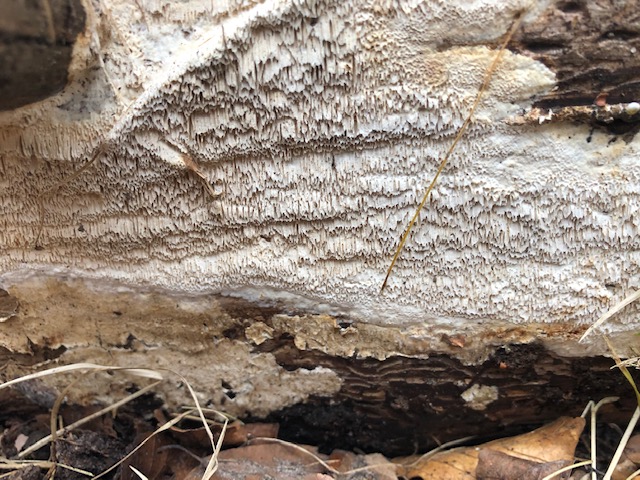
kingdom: Fungi
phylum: Basidiomycota
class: Agaricomycetes
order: Polyporales
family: Fomitopsidaceae
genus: Antrodia
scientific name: Antrodia sinuosa
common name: tømmer-sejporesvamp
